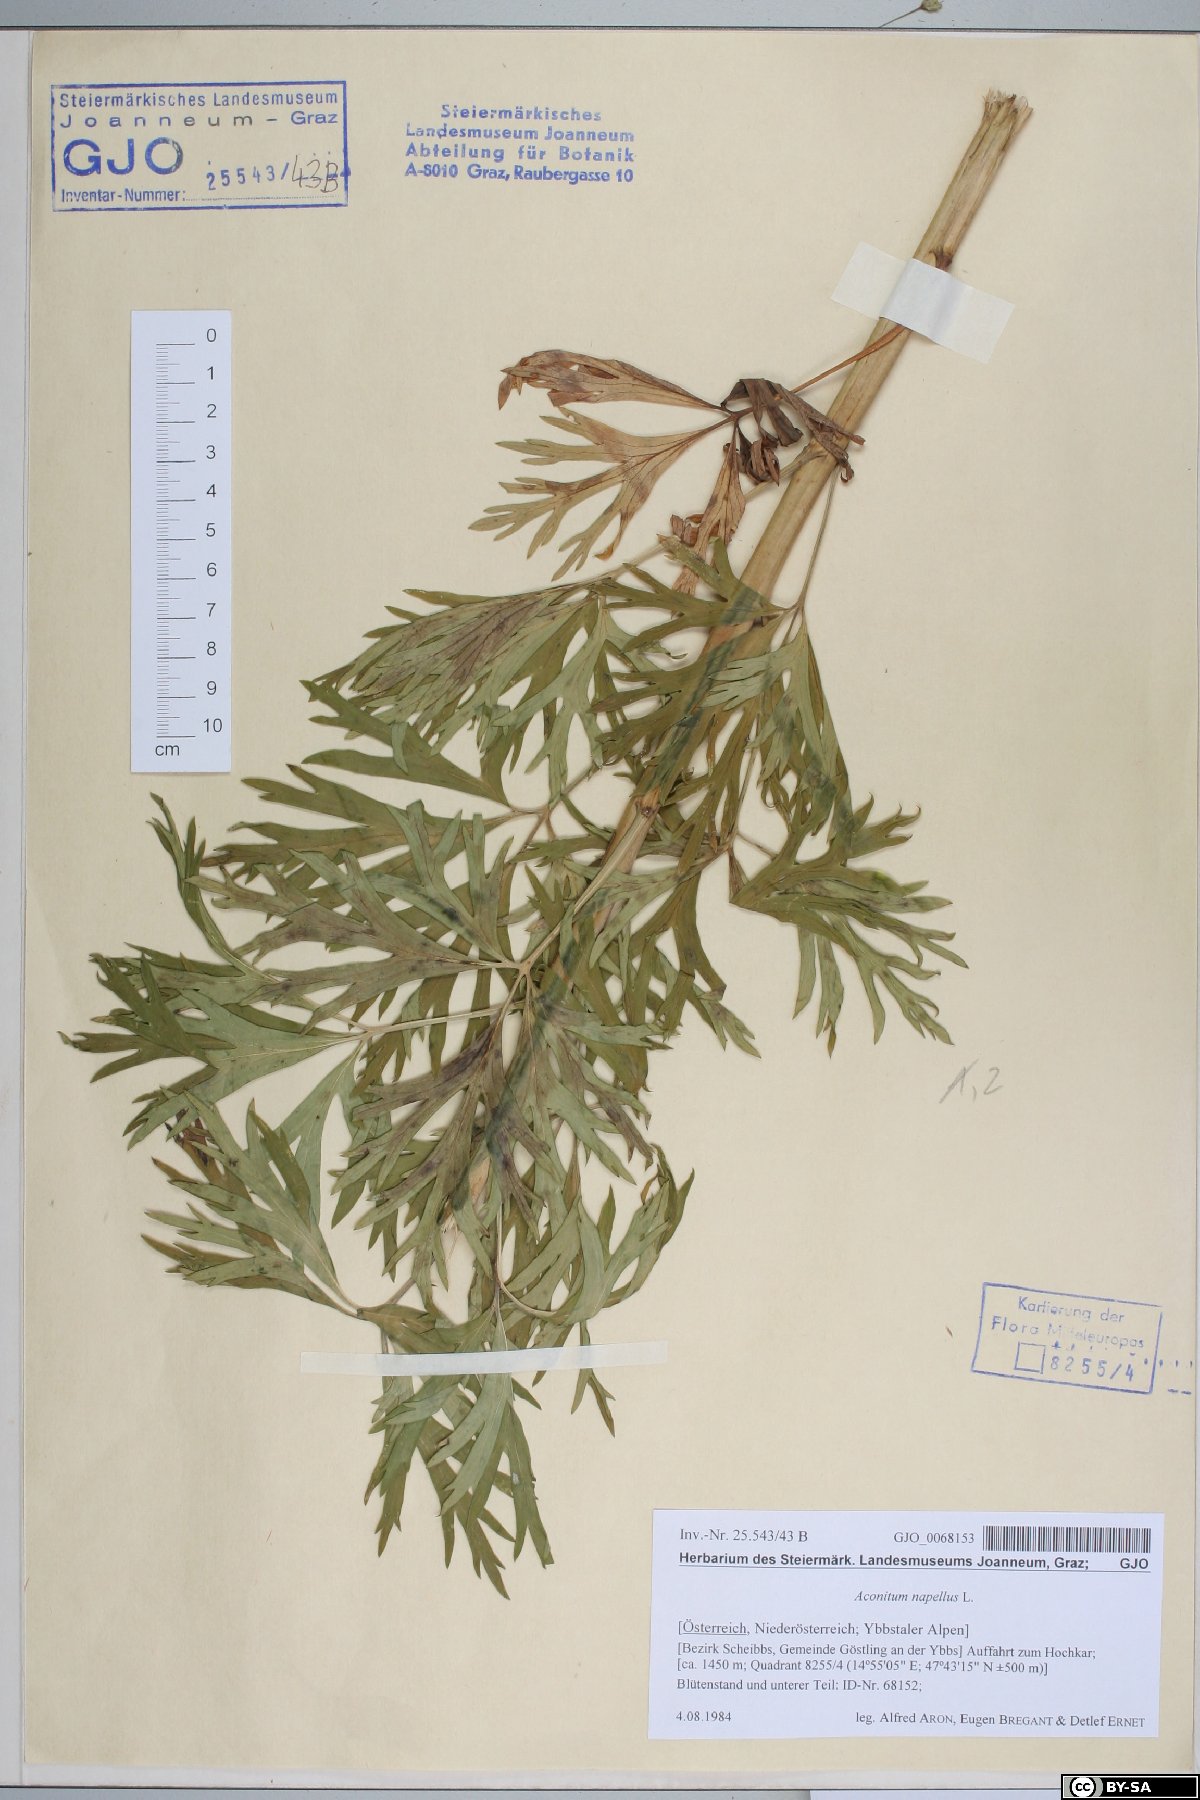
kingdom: Plantae
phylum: Tracheophyta
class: Magnoliopsida
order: Ranunculales
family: Ranunculaceae
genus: Aconitum
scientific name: Aconitum napellus
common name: Garden monkshood
